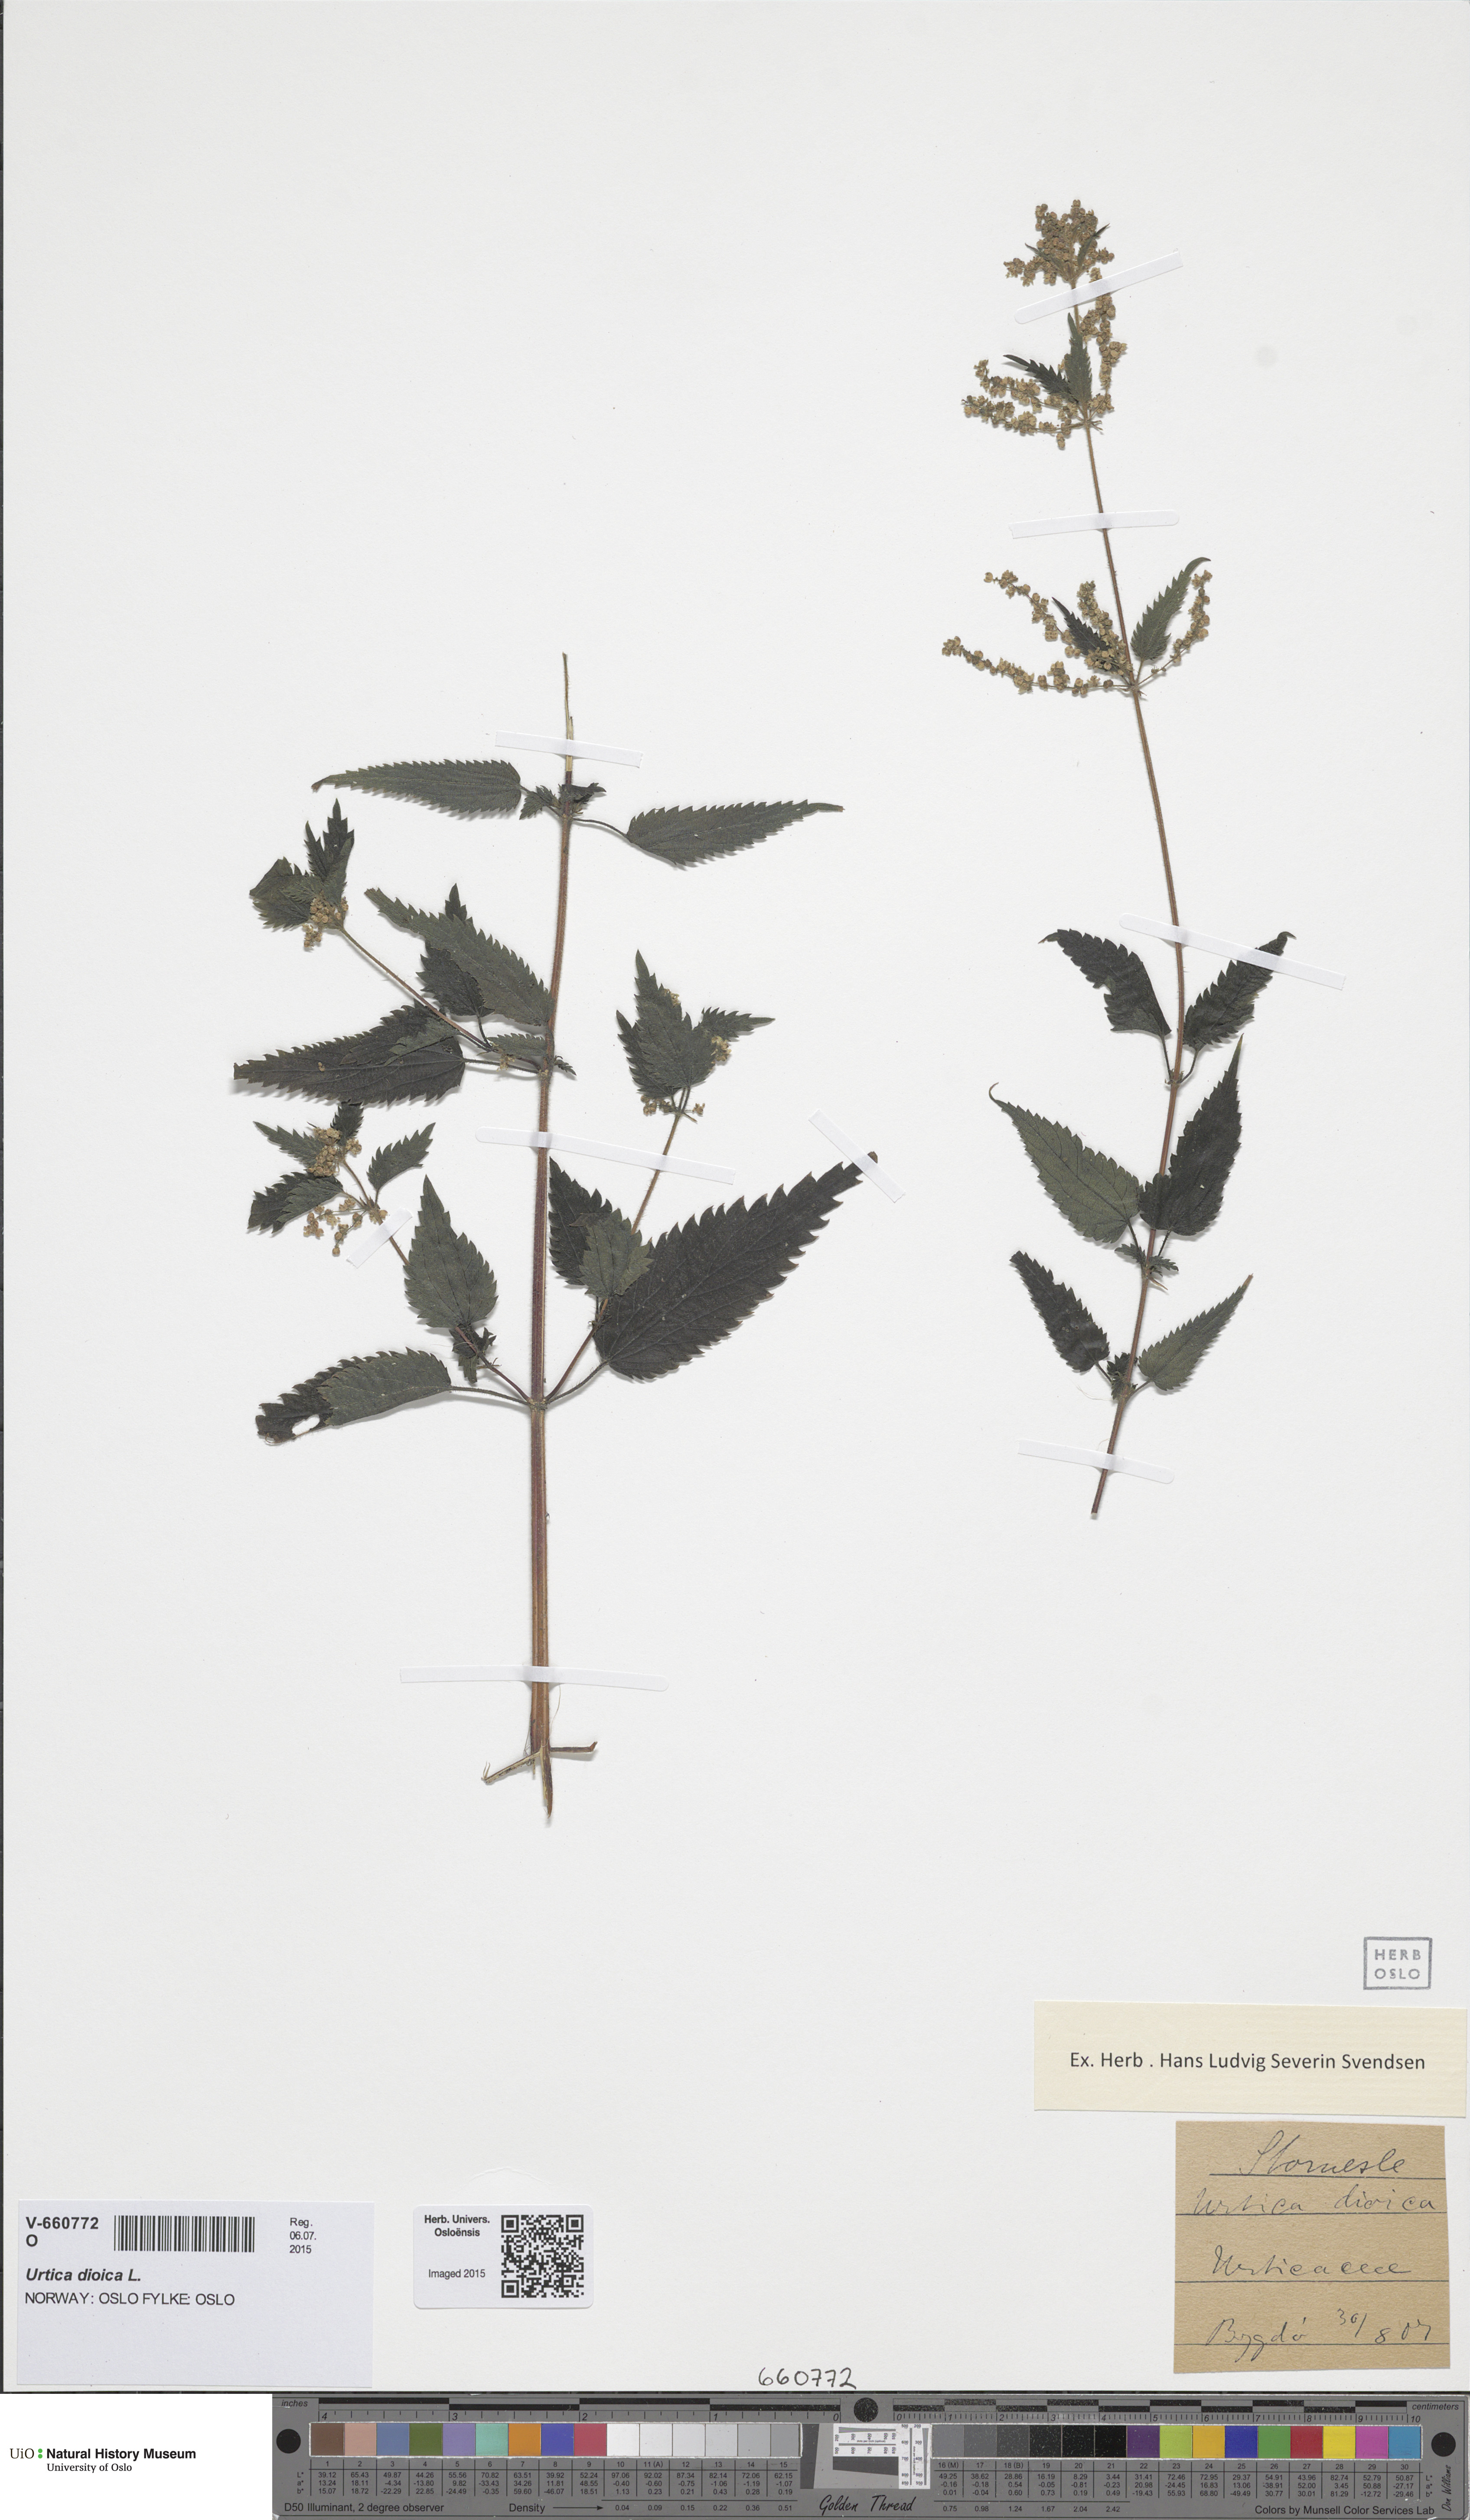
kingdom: Plantae
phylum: Tracheophyta
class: Magnoliopsida
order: Rosales
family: Urticaceae
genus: Urtica
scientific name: Urtica dioica
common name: Common nettle
